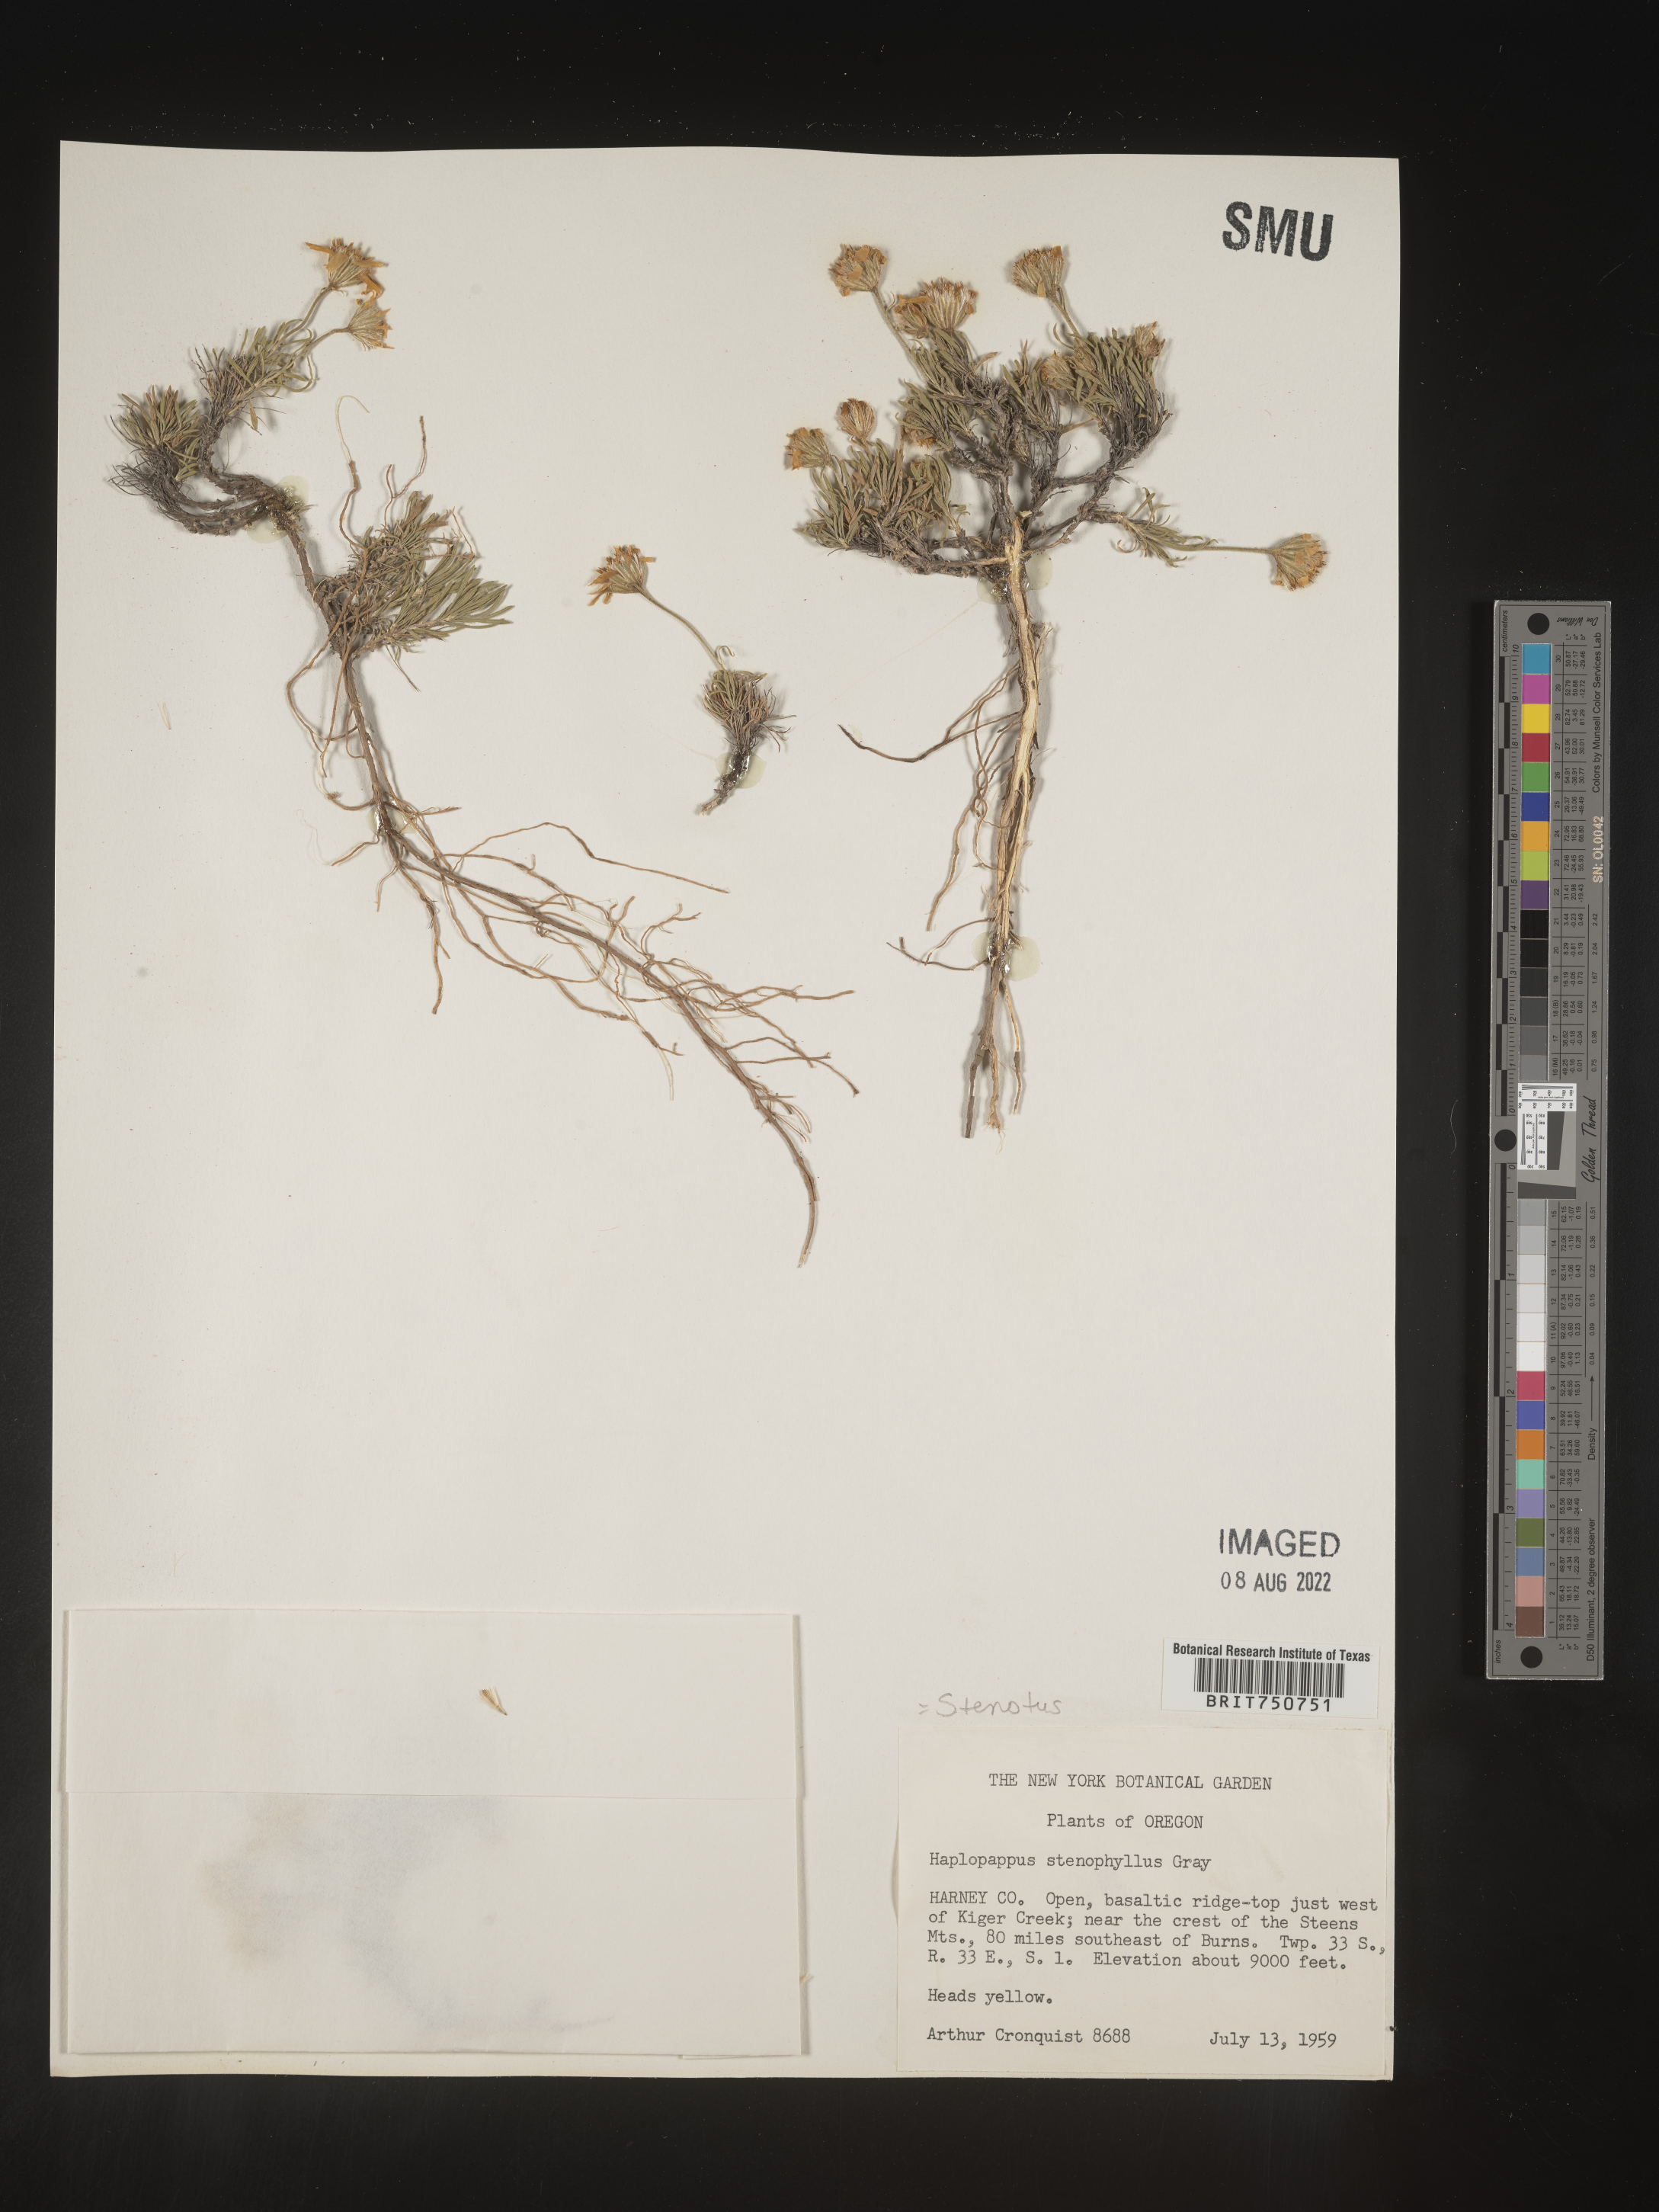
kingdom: Plantae
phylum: Tracheophyta
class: Magnoliopsida
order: Asterales
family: Asteraceae
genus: Nestotus
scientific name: Nestotus stenophyllus
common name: Narrow-leaf mock goldenweed
